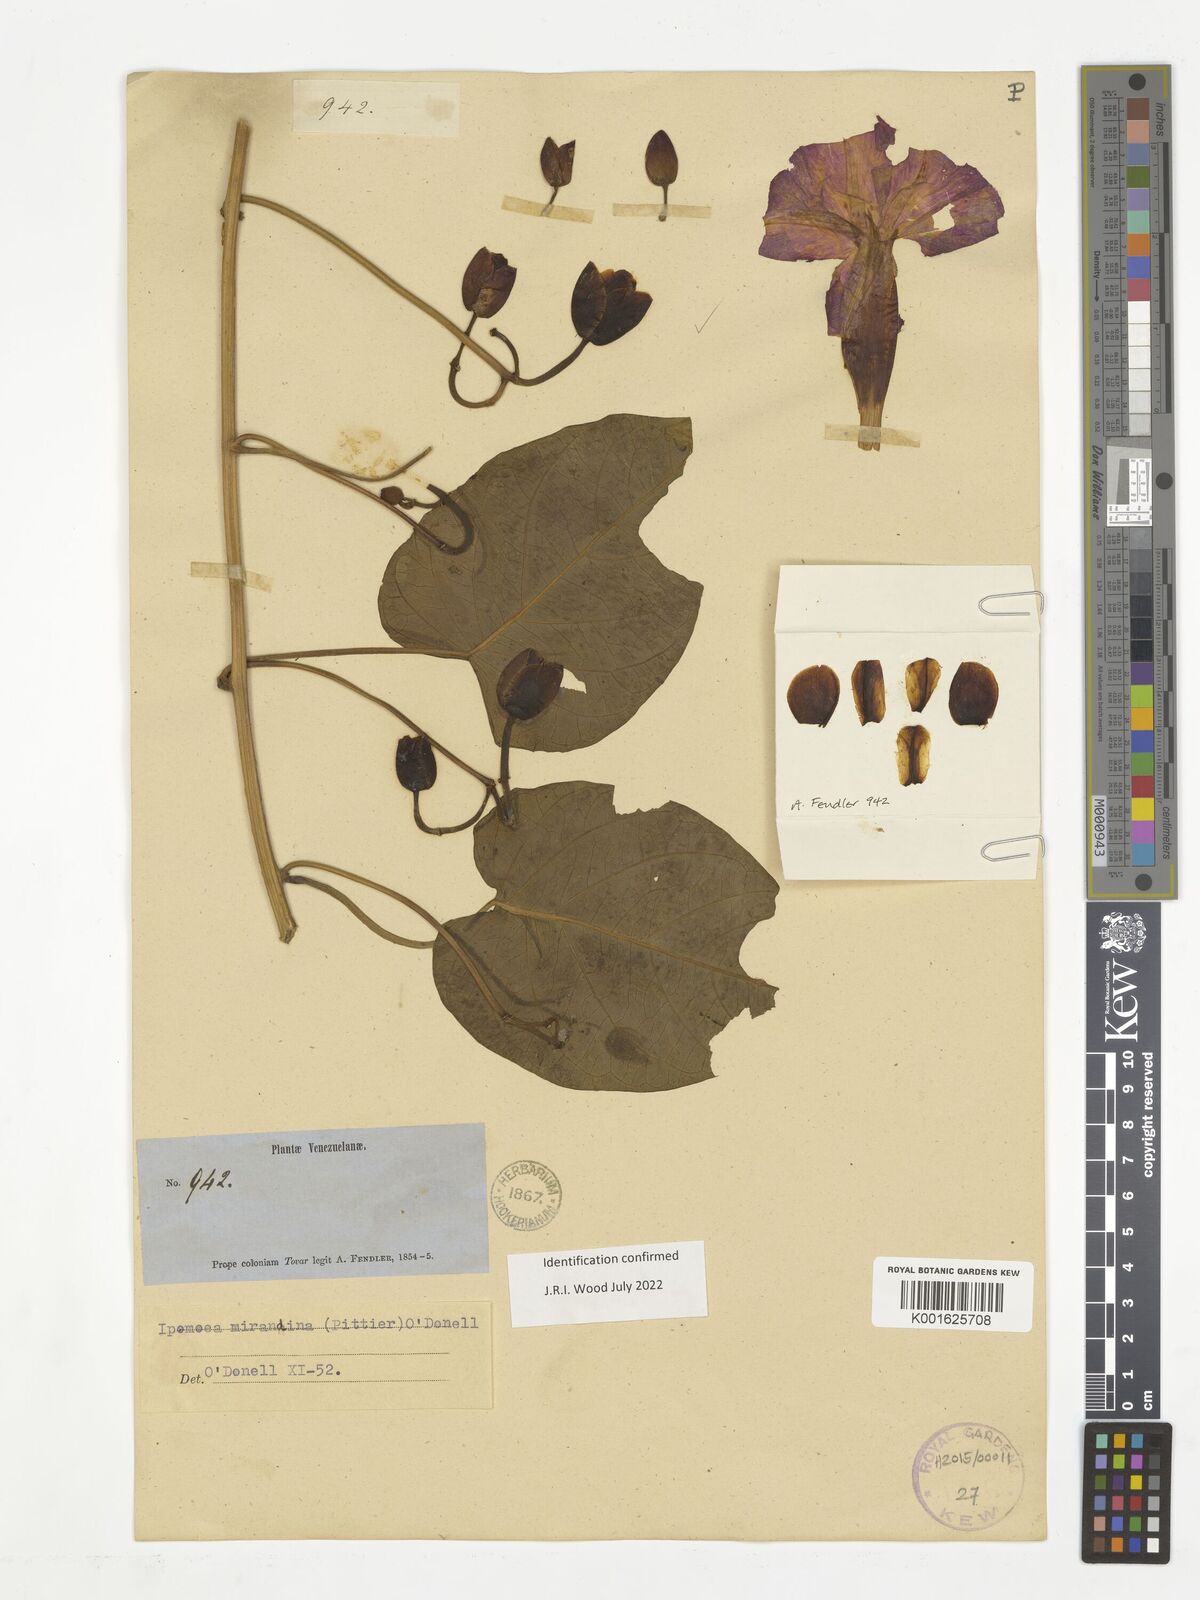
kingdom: Plantae
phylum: Tracheophyta
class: Magnoliopsida
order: Solanales
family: Convolvulaceae
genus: Ipomoea
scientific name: Ipomoea mirandina
